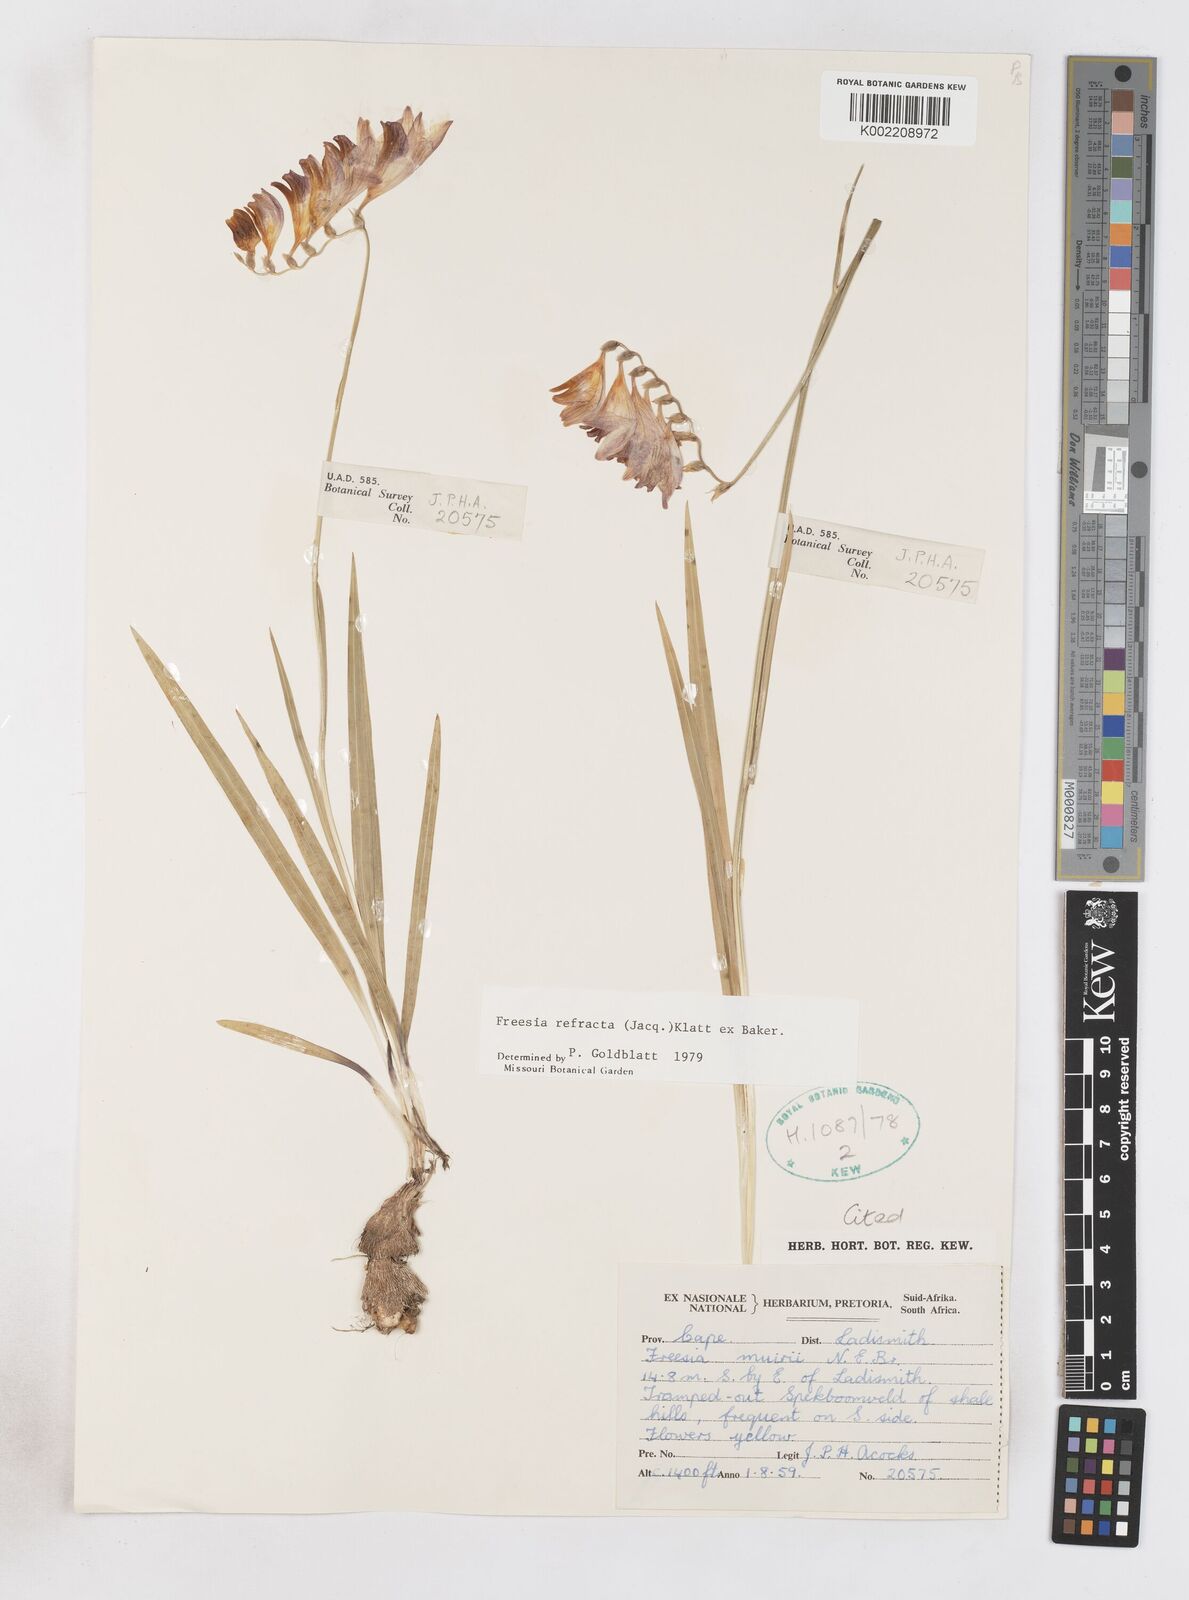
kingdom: Plantae
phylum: Tracheophyta
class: Liliopsida
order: Asparagales
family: Iridaceae
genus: Freesia
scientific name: Freesia refracta
